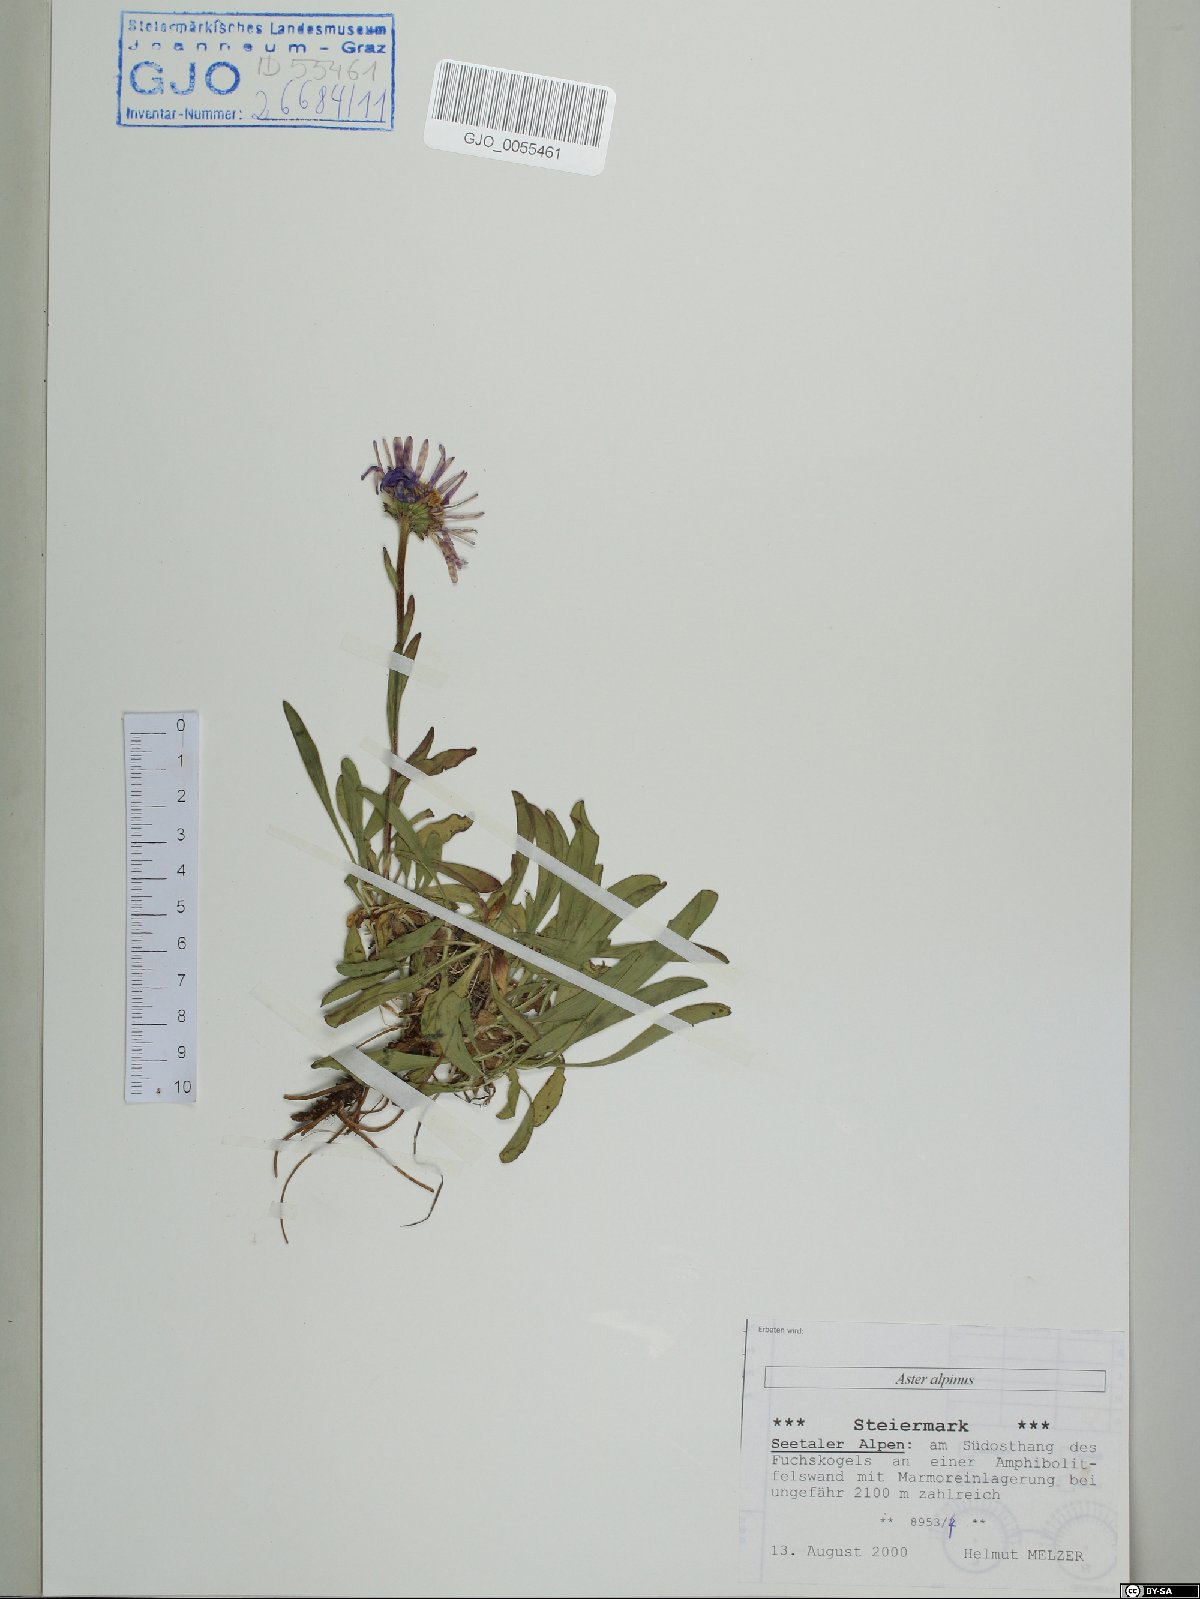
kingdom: Plantae
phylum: Tracheophyta
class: Magnoliopsida
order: Asterales
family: Asteraceae
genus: Aster
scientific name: Aster alpinus
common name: Alpine aster
